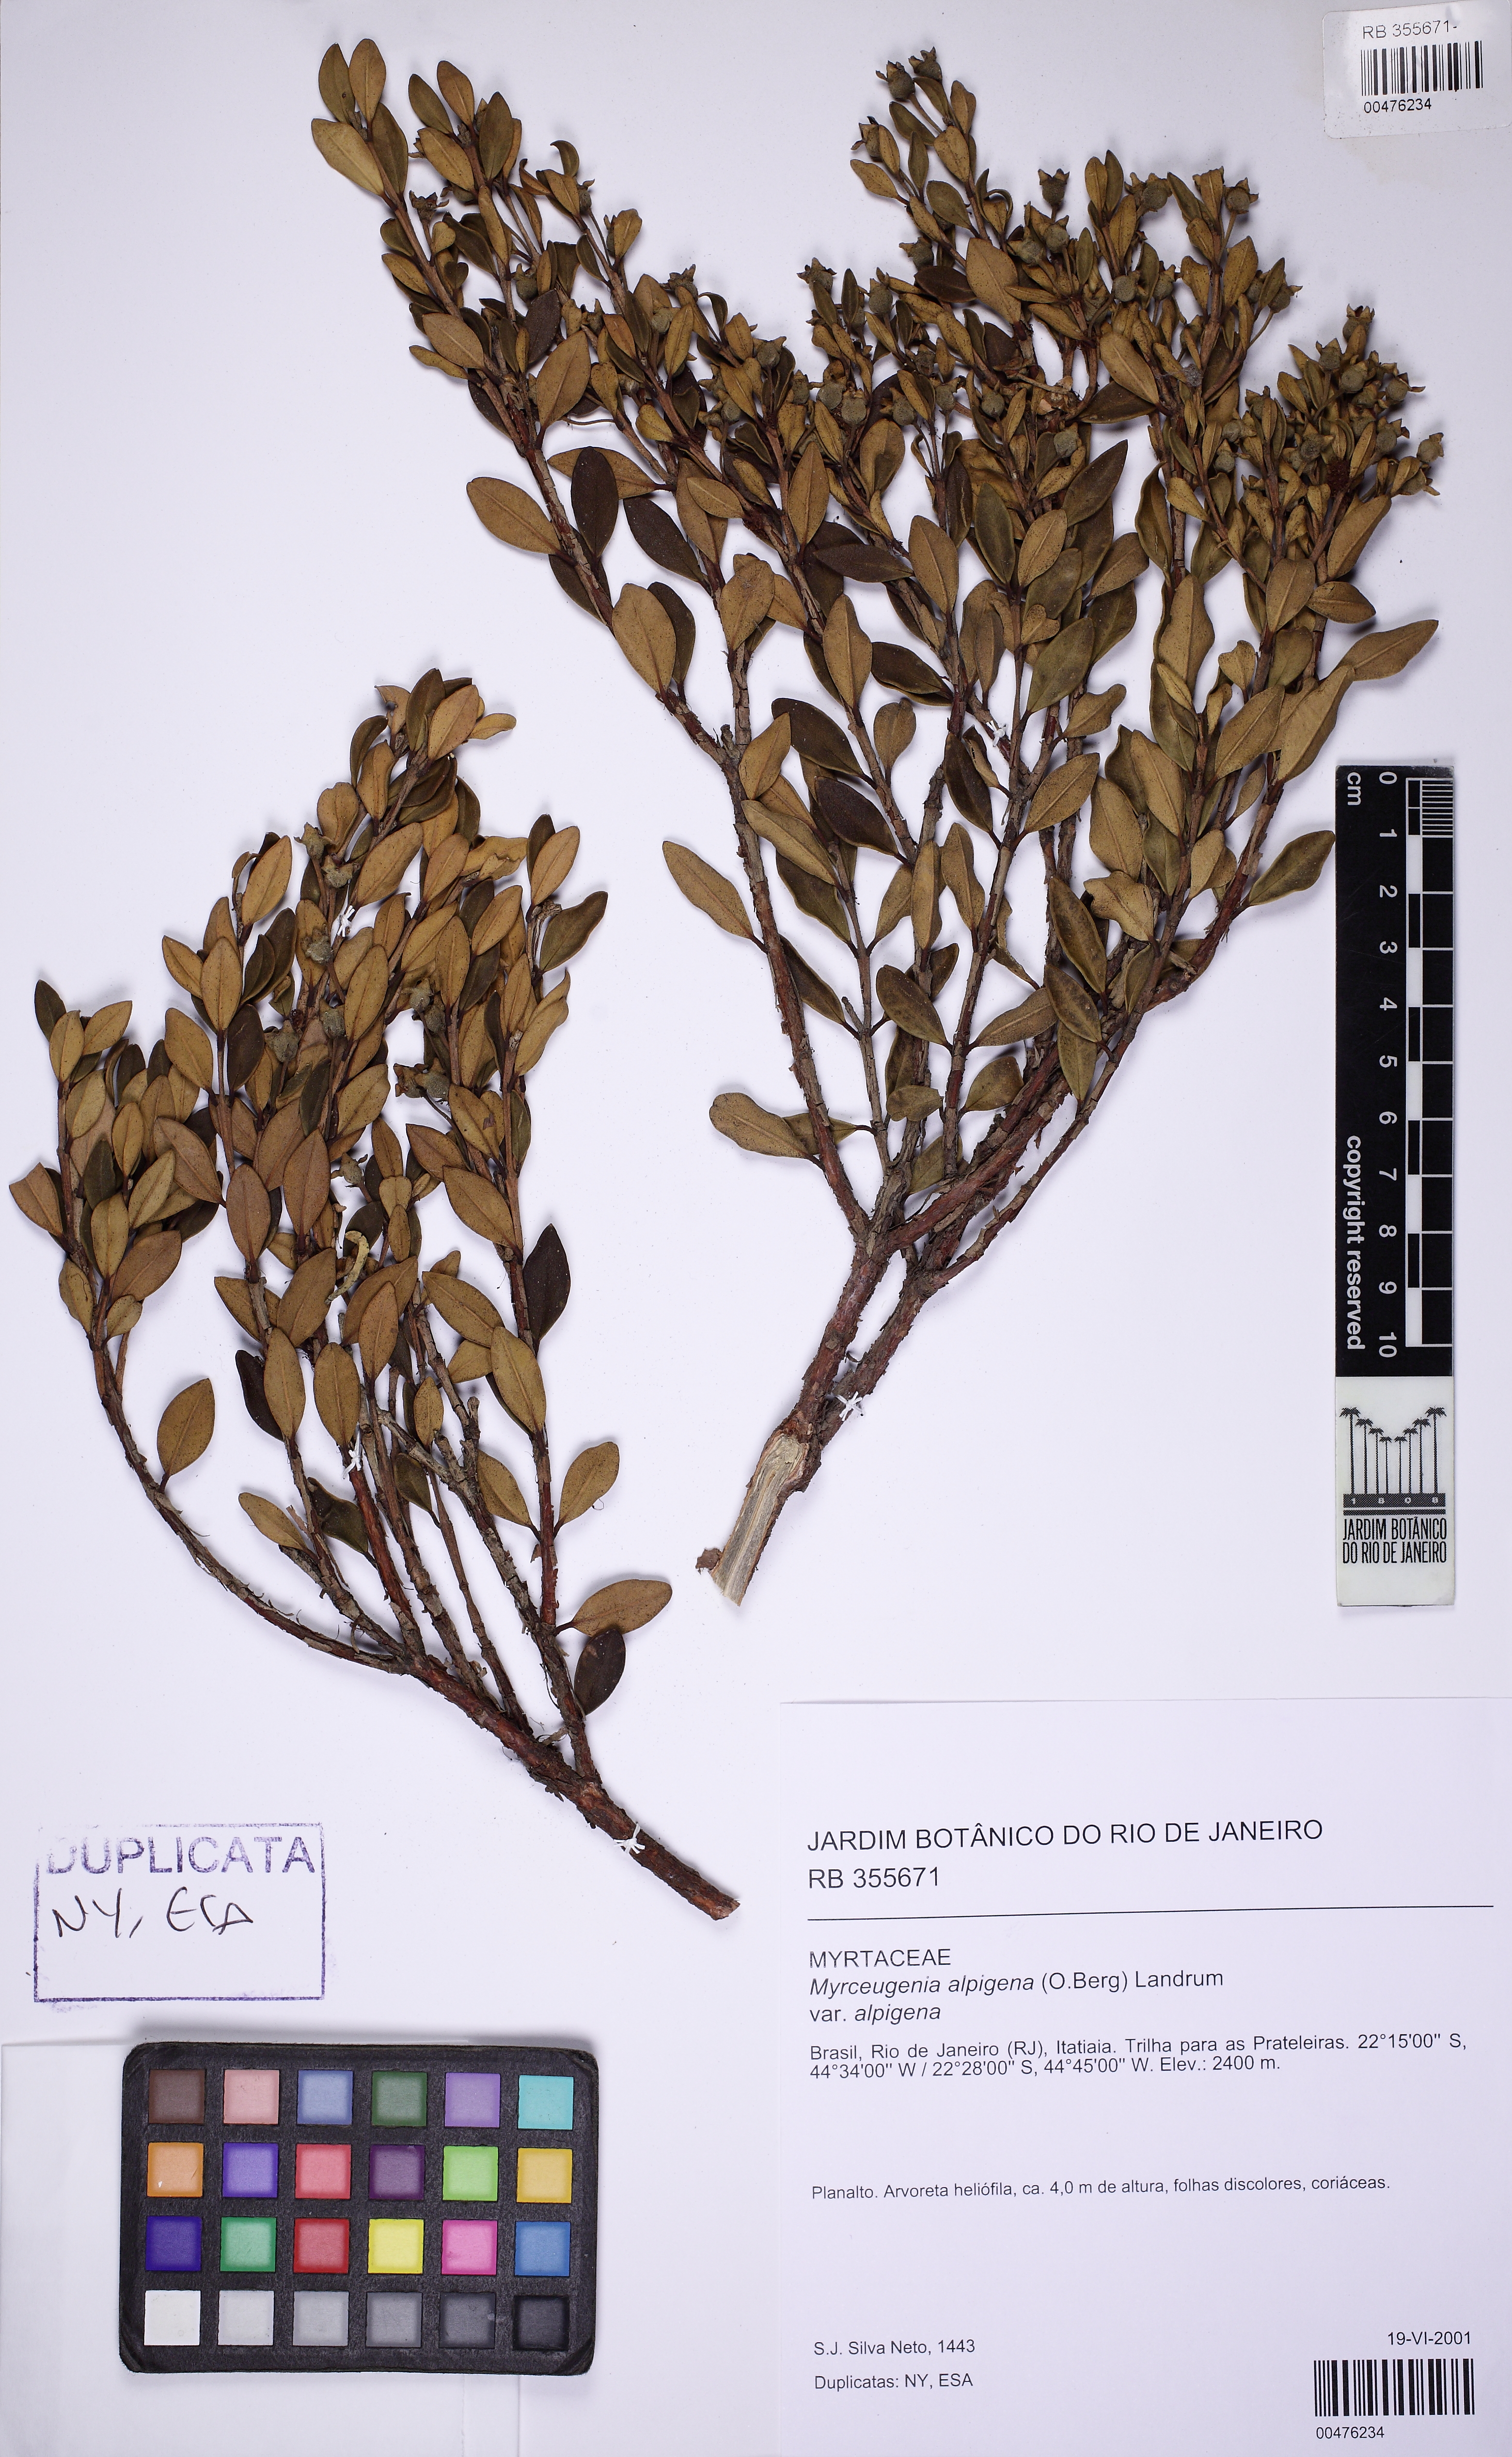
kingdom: Plantae
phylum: Tracheophyta
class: Magnoliopsida
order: Myrtales
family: Myrtaceae
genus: Myrceugenia
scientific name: Myrceugenia alpigena
